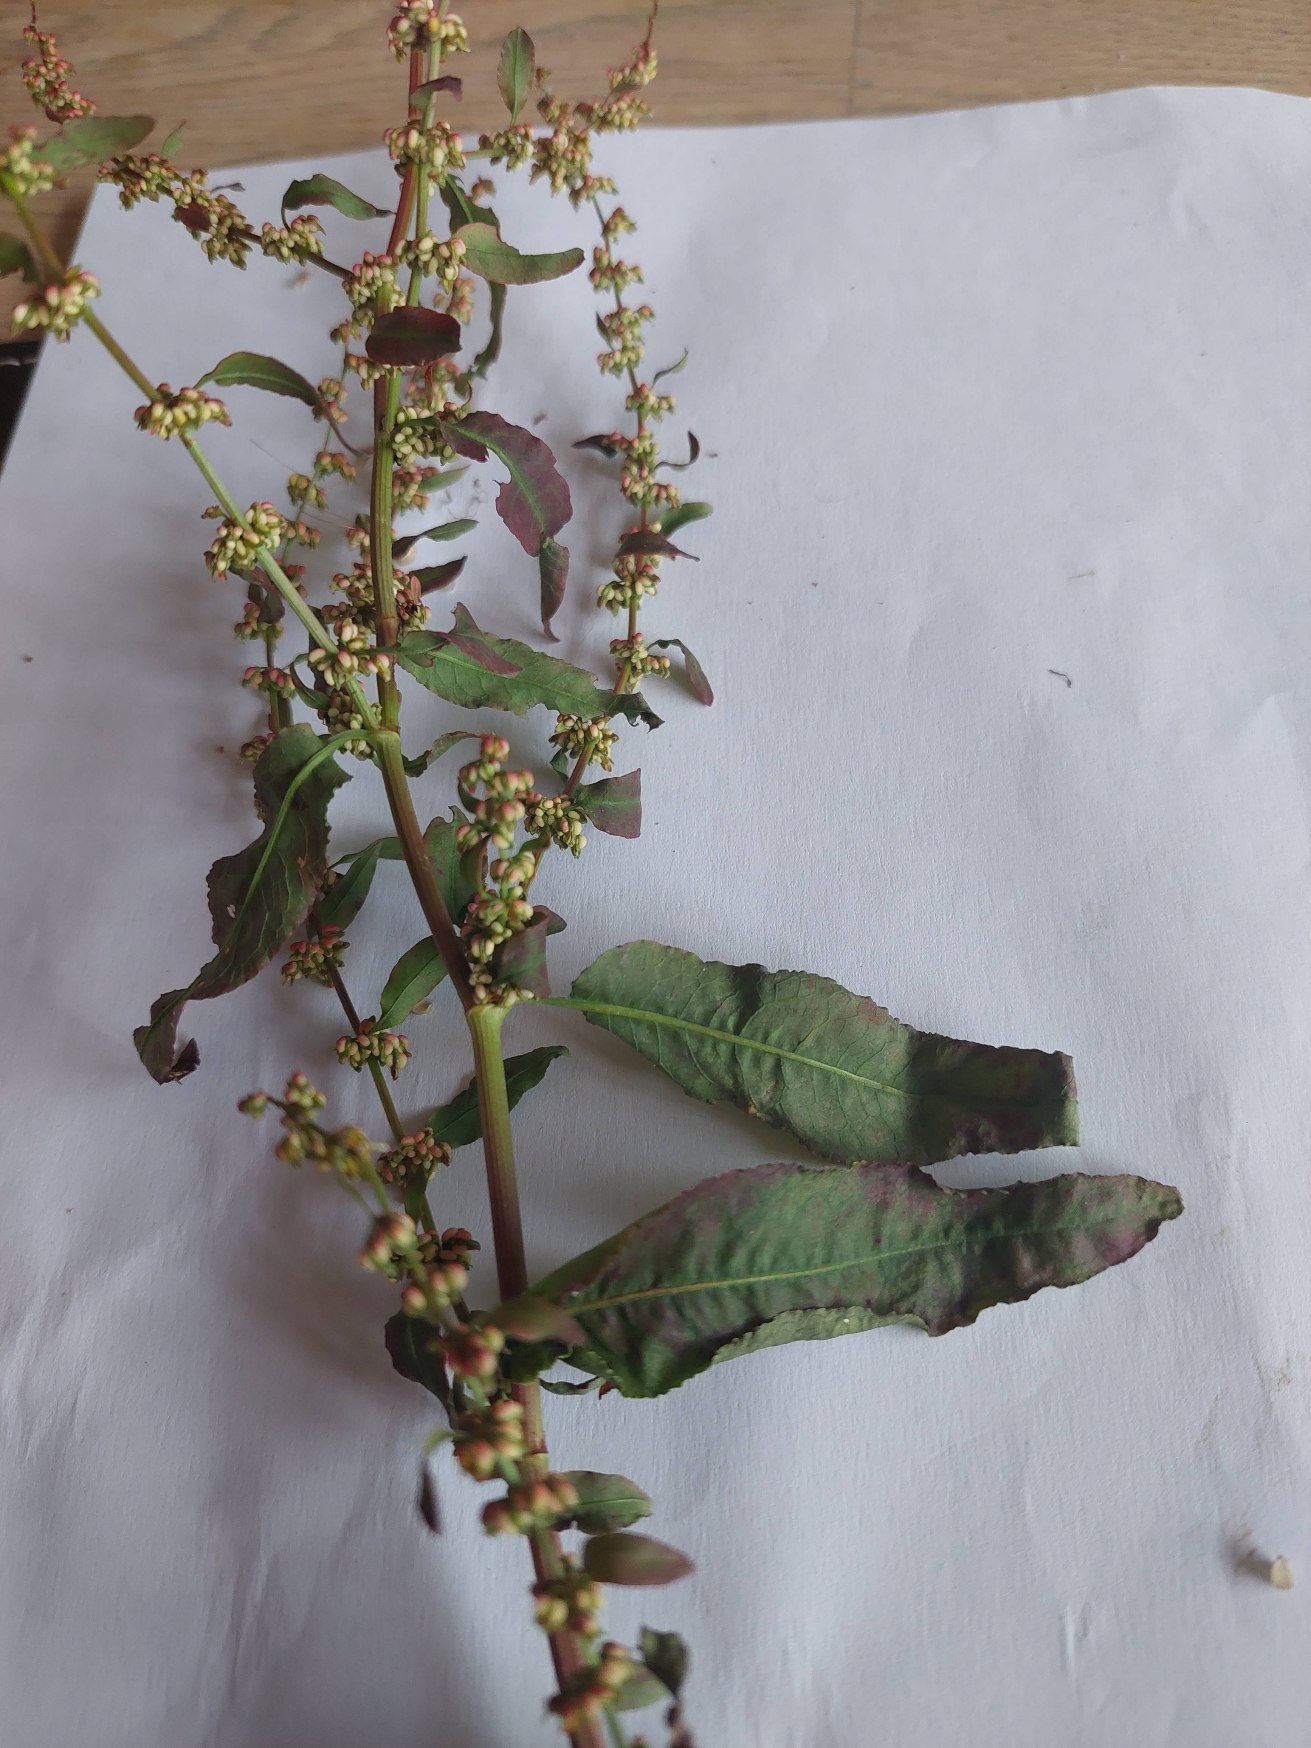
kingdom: Plantae
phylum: Tracheophyta
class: Magnoliopsida
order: Caryophyllales
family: Polygonaceae
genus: Rumex
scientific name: Rumex conglomeratus
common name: Nøgle-skræppe
